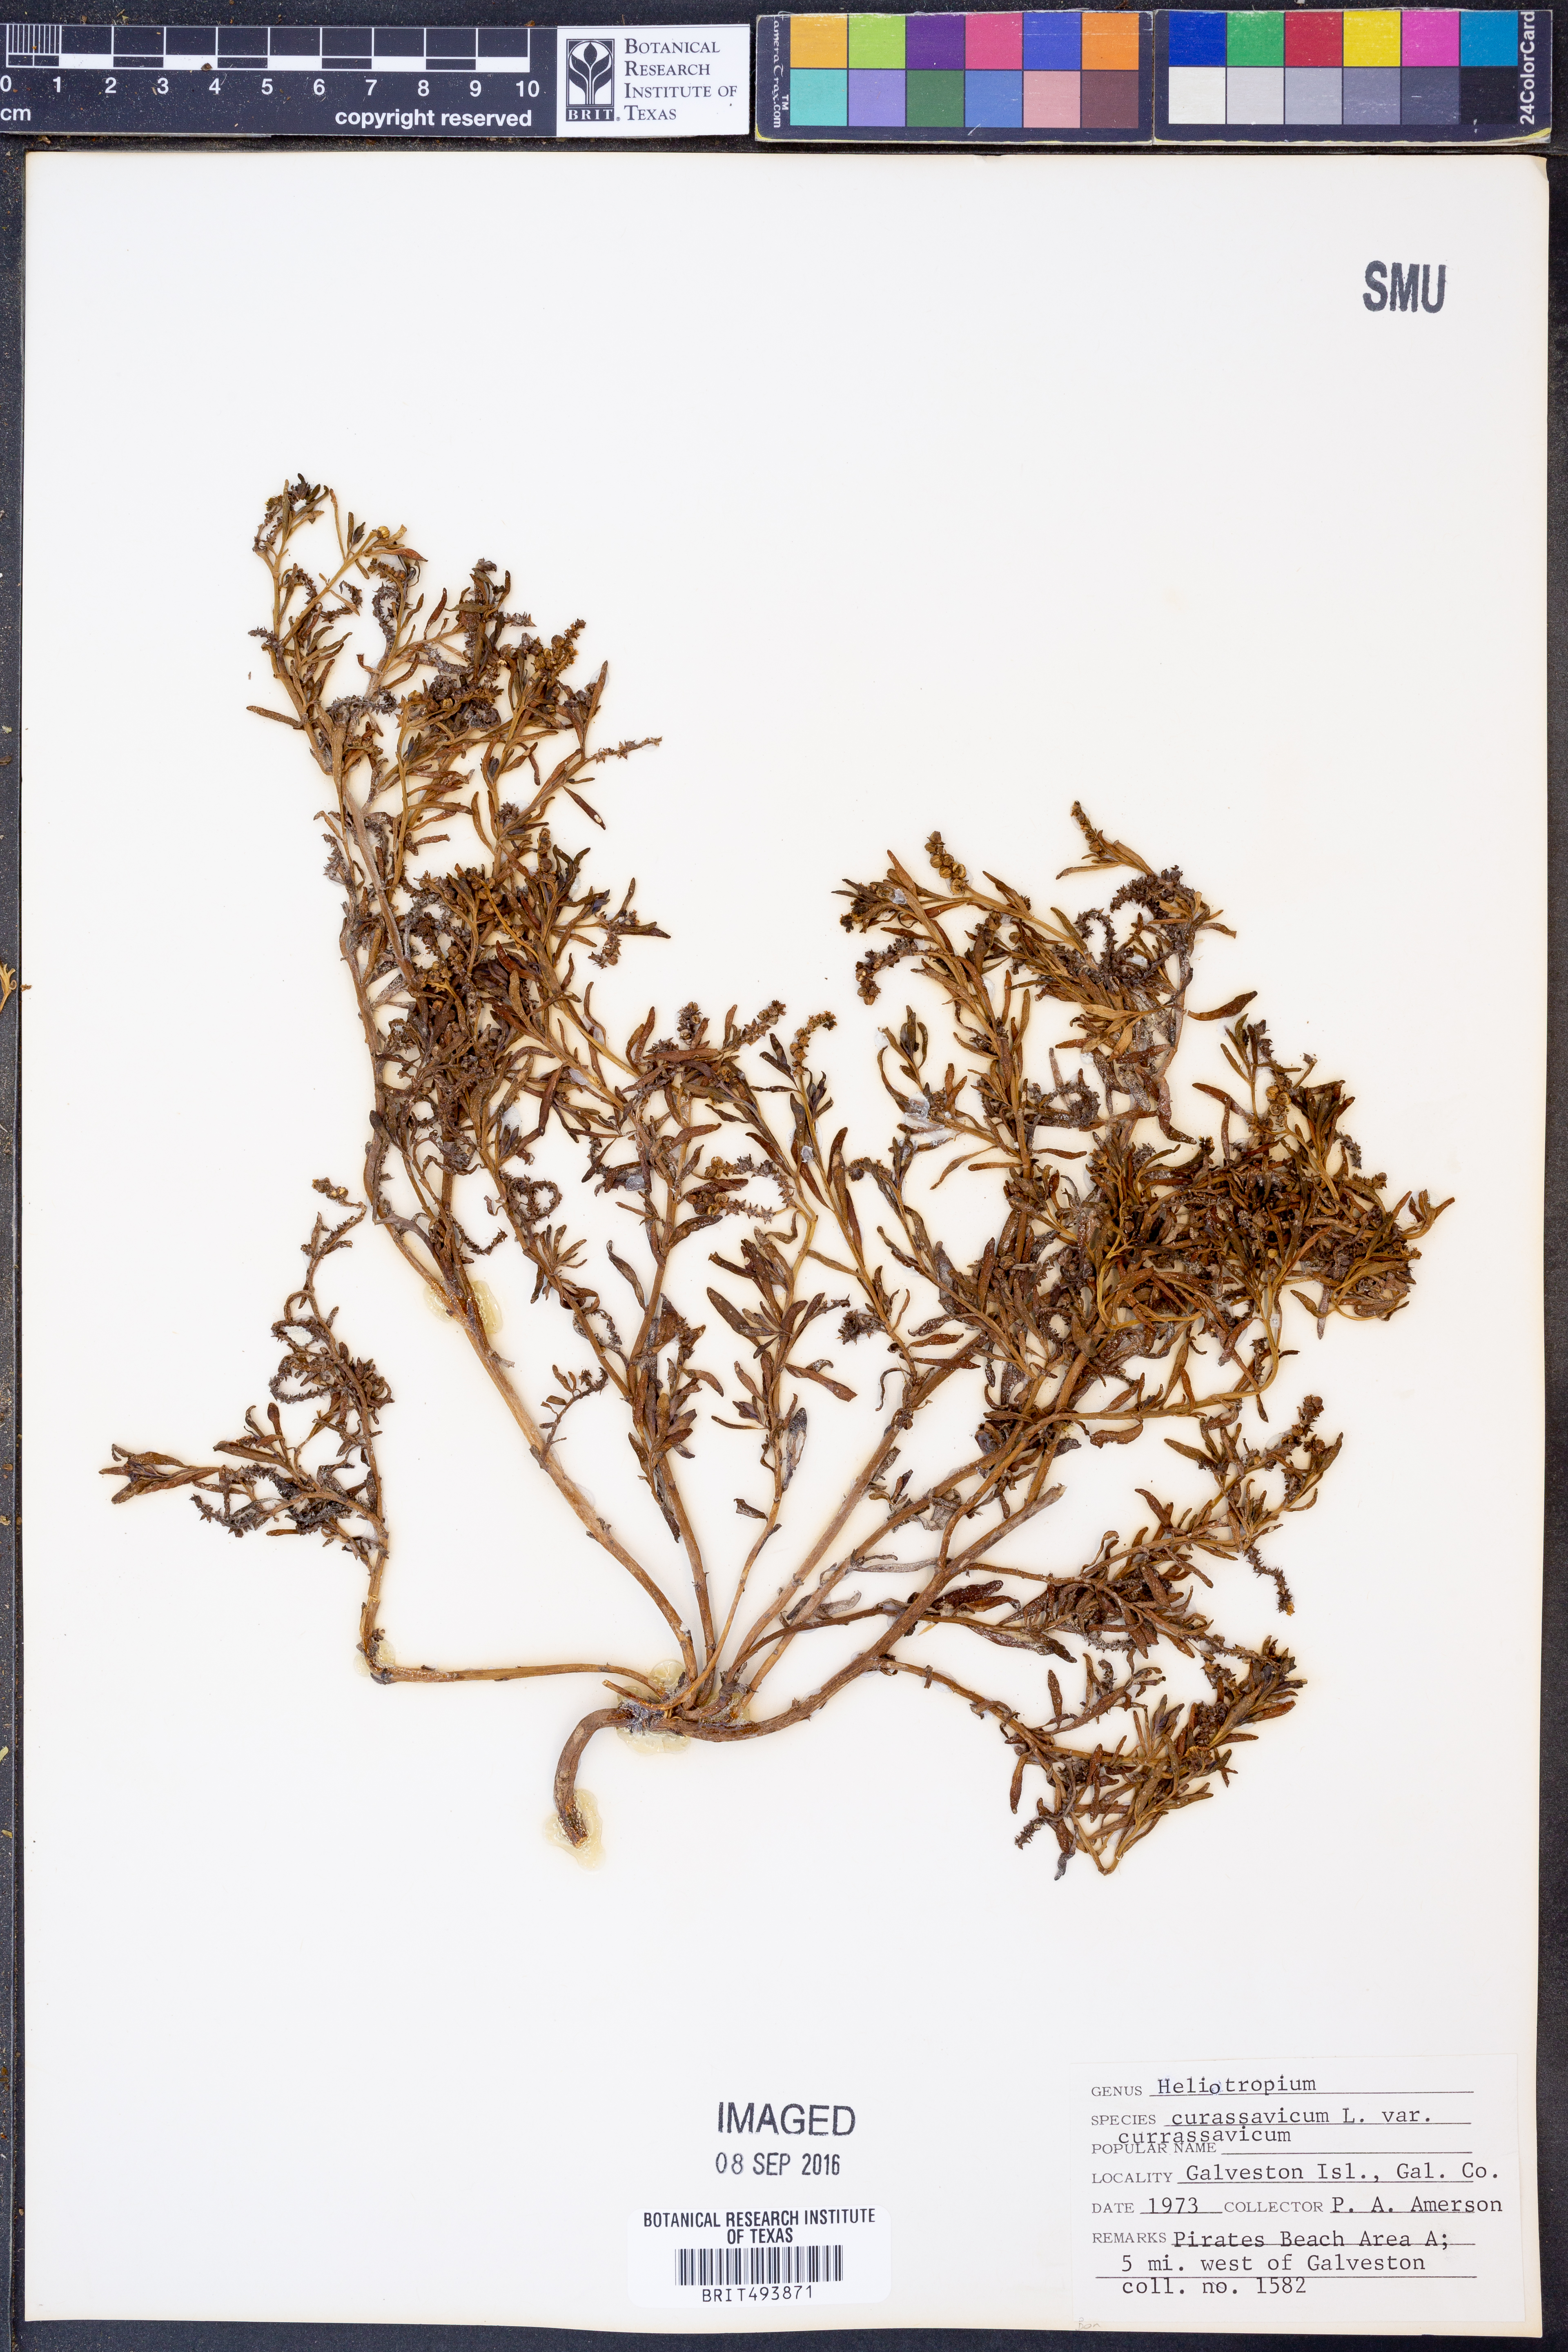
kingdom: Plantae
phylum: Tracheophyta
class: Magnoliopsida
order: Boraginales
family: Heliotropiaceae
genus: Heliotropium
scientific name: Heliotropium curassavicum
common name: Seaside heliotrope
